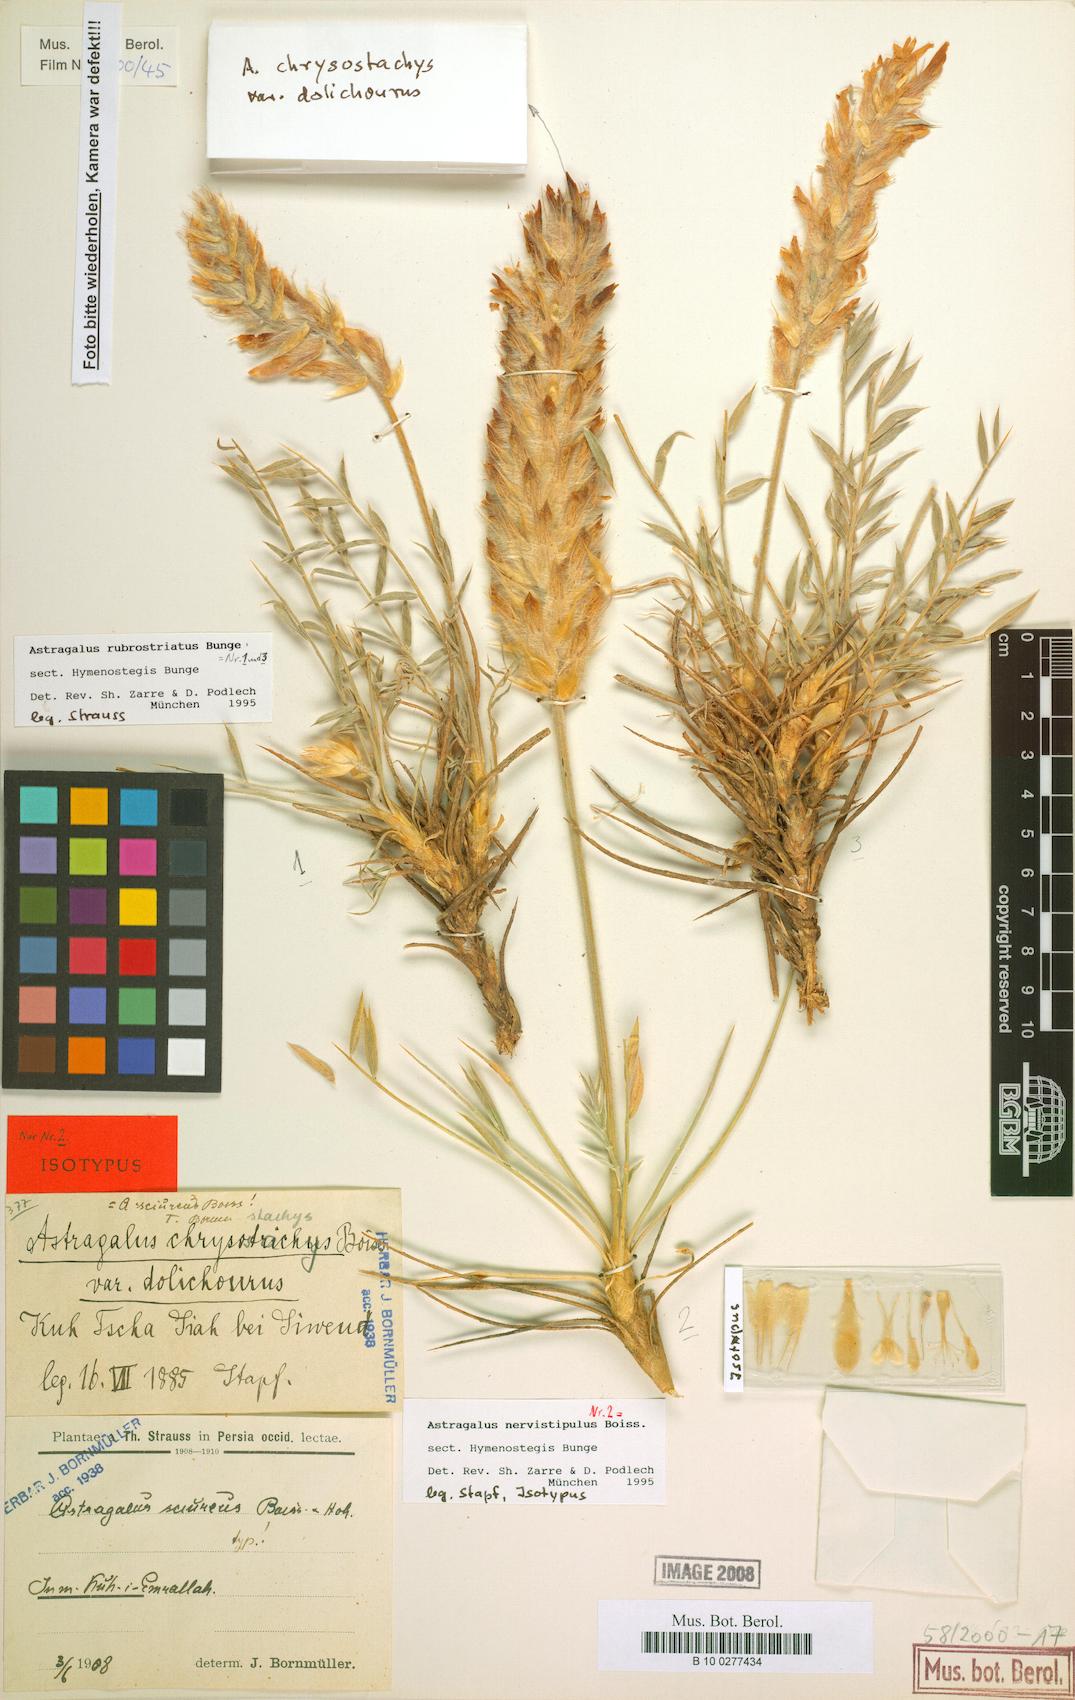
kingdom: Plantae
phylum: Tracheophyta
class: Magnoliopsida
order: Fabales
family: Fabaceae
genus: Astragalus
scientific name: Astragalus rubrostriatus
